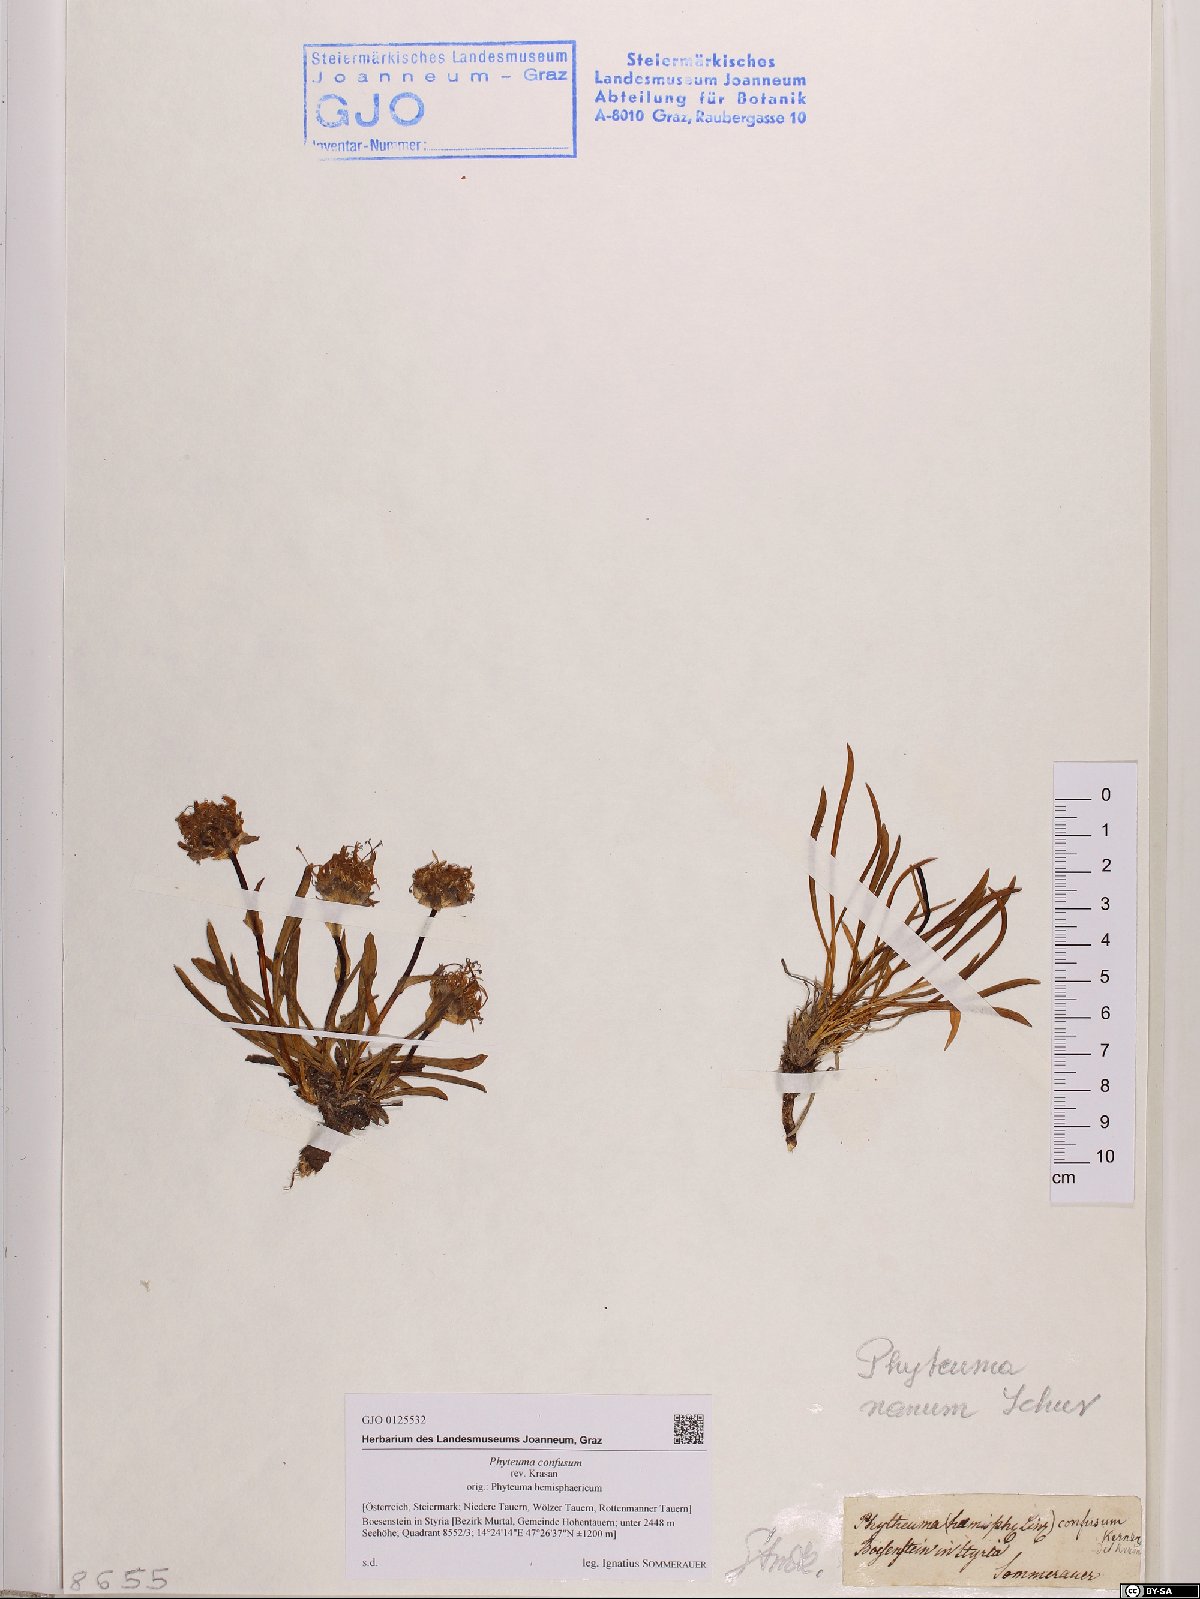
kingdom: Plantae
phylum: Tracheophyta
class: Magnoliopsida
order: Asterales
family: Campanulaceae
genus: Phyteuma
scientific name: Phyteuma confusum
